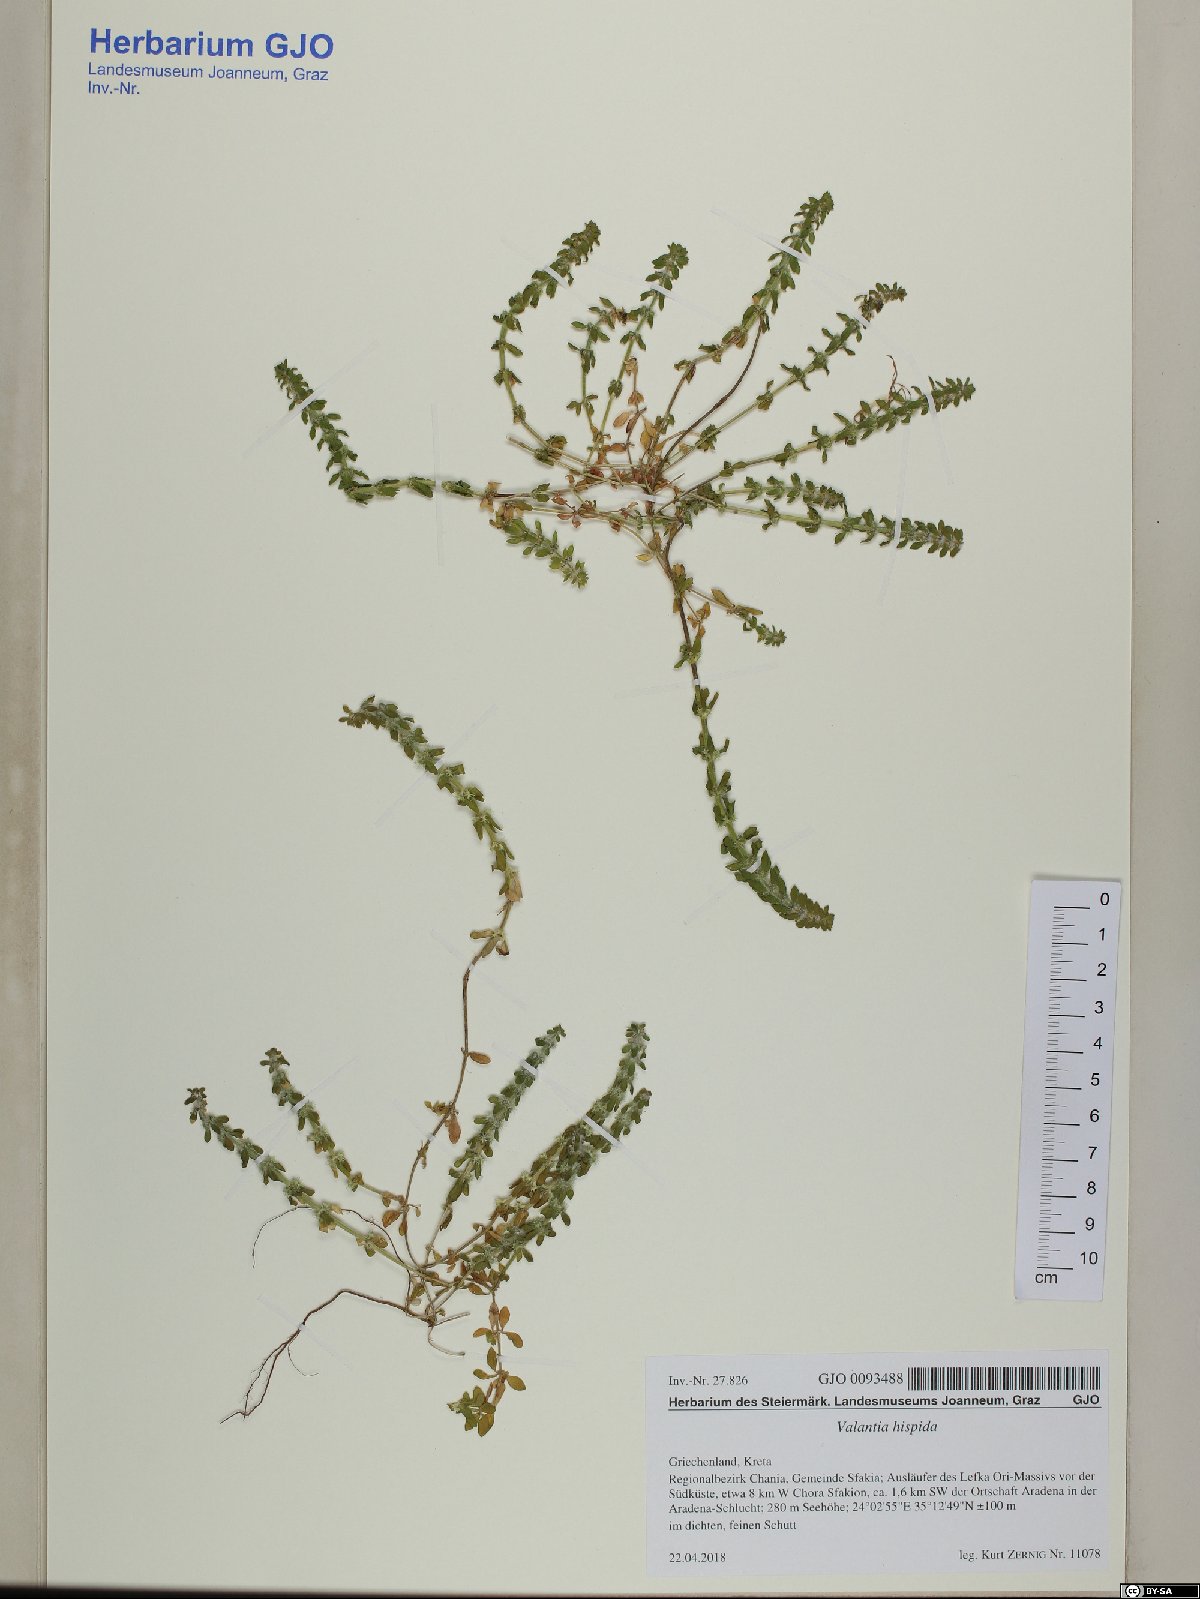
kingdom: Plantae
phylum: Tracheophyta
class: Magnoliopsida
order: Gentianales
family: Rubiaceae
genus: Valantia
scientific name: Valantia hispida
